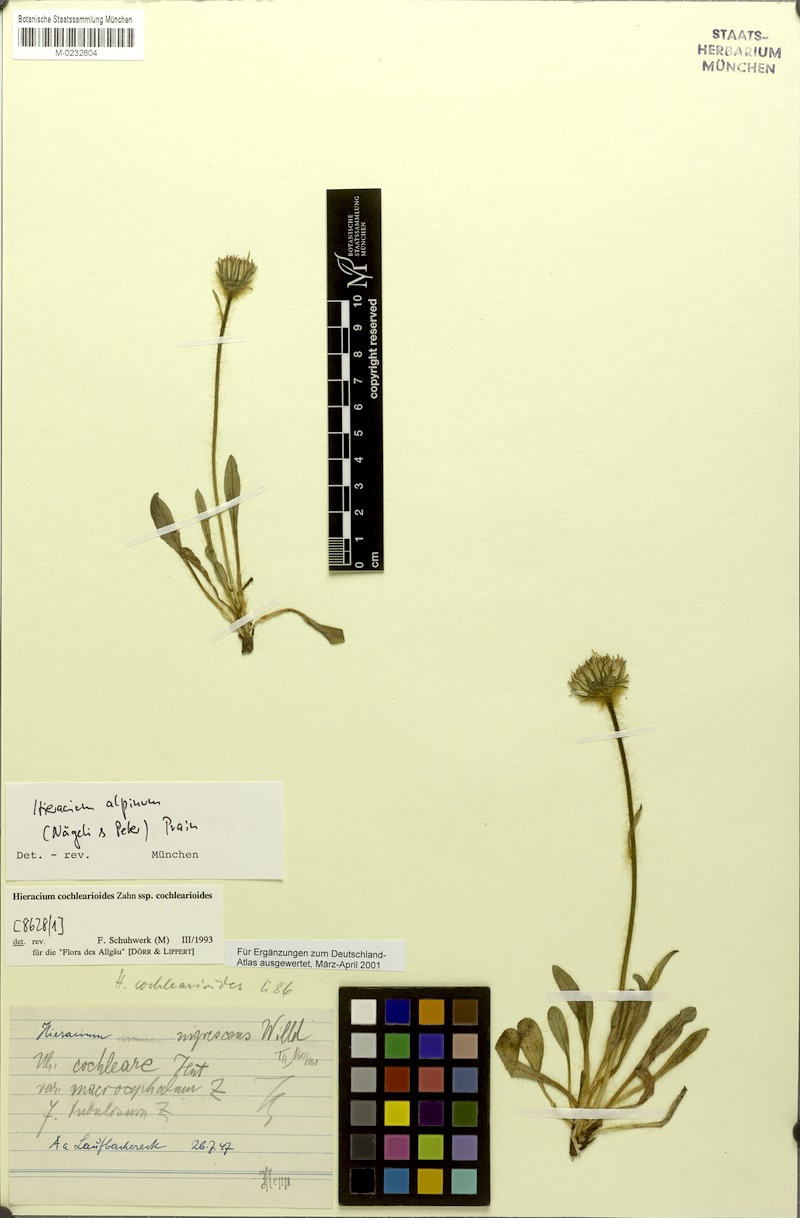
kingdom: Plantae
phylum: Tracheophyta
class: Magnoliopsida
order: Asterales
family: Asteraceae
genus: Hieracium
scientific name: Hieracium alpinum
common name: Alpine hawkweed
